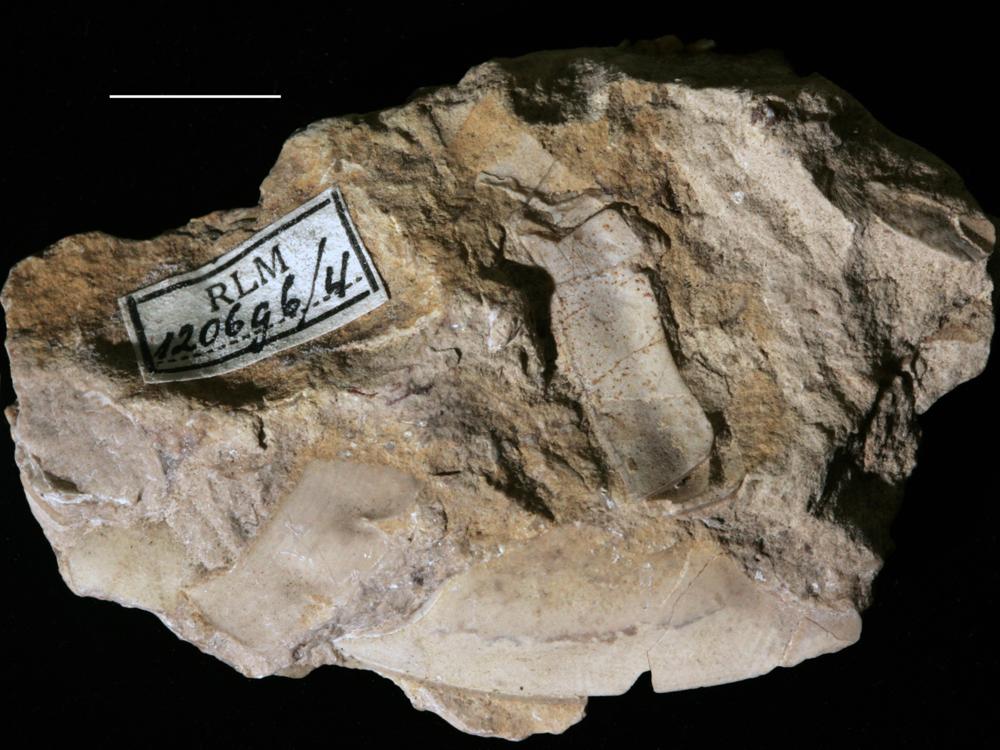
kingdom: Animalia
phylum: Arthropoda
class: Trilobita
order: Asaphida
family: Asaphidae
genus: Isotelus
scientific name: Isotelus platyrhachis
